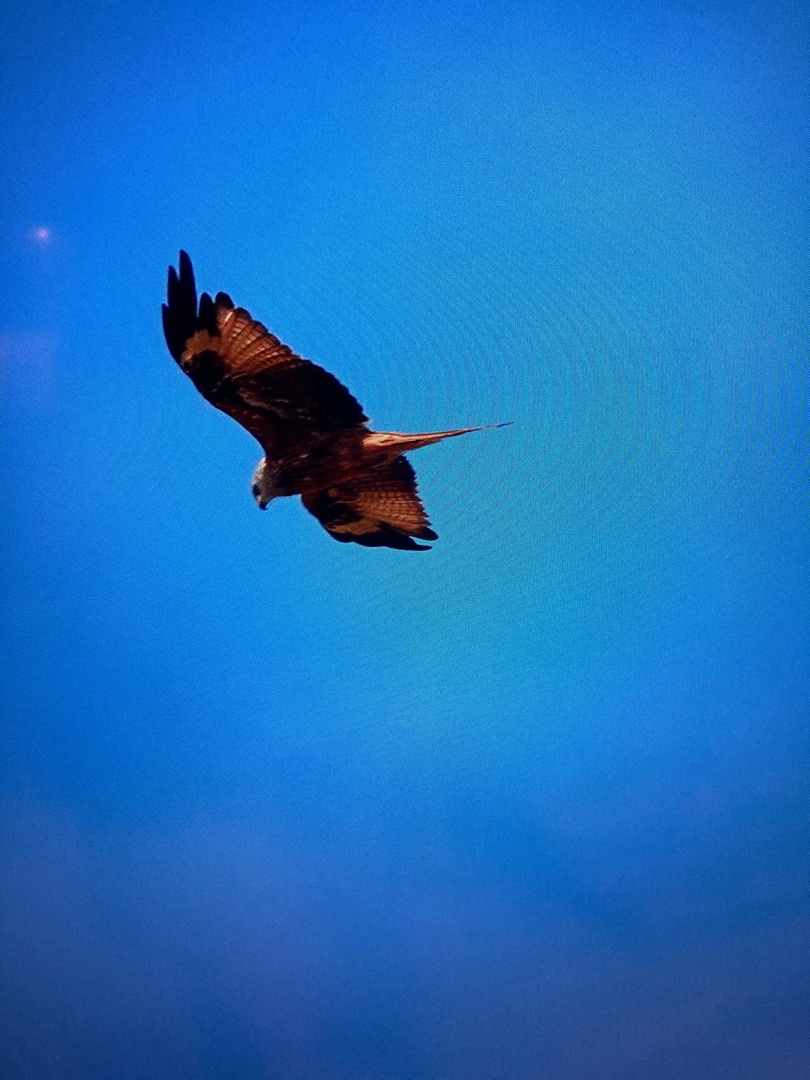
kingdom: Animalia
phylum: Chordata
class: Aves
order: Accipitriformes
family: Accipitridae
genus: Milvus
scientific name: Milvus milvus
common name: Rød glente
